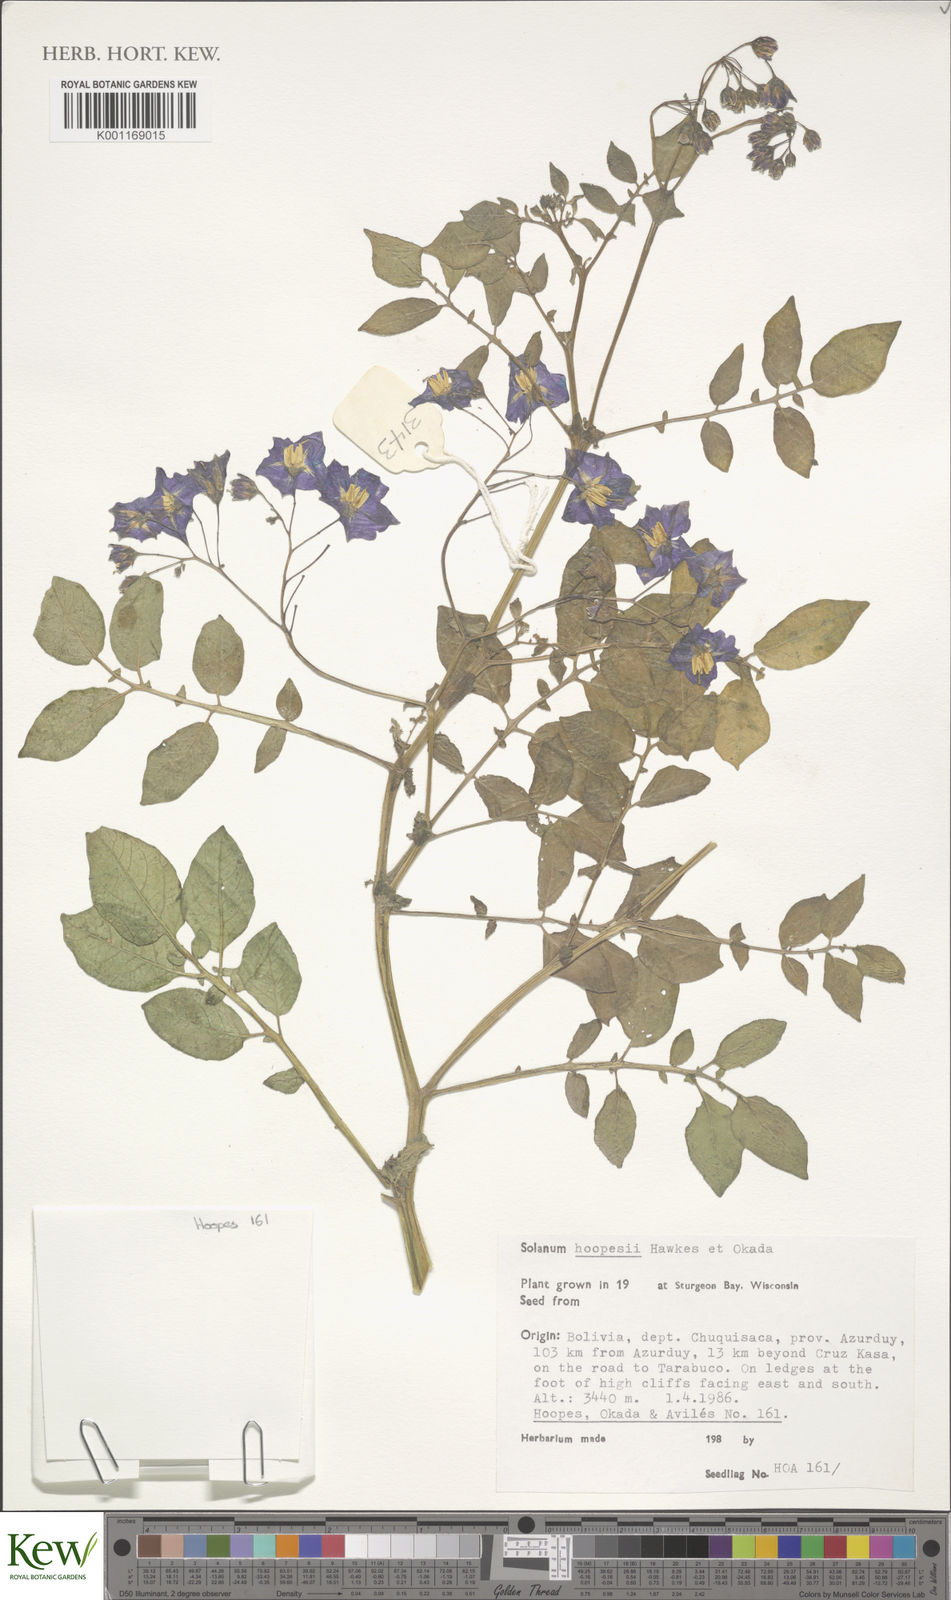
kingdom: Plantae
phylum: Tracheophyta
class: Magnoliopsida
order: Solanales
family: Solanaceae
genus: Solanum
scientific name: Solanum brevicaule
